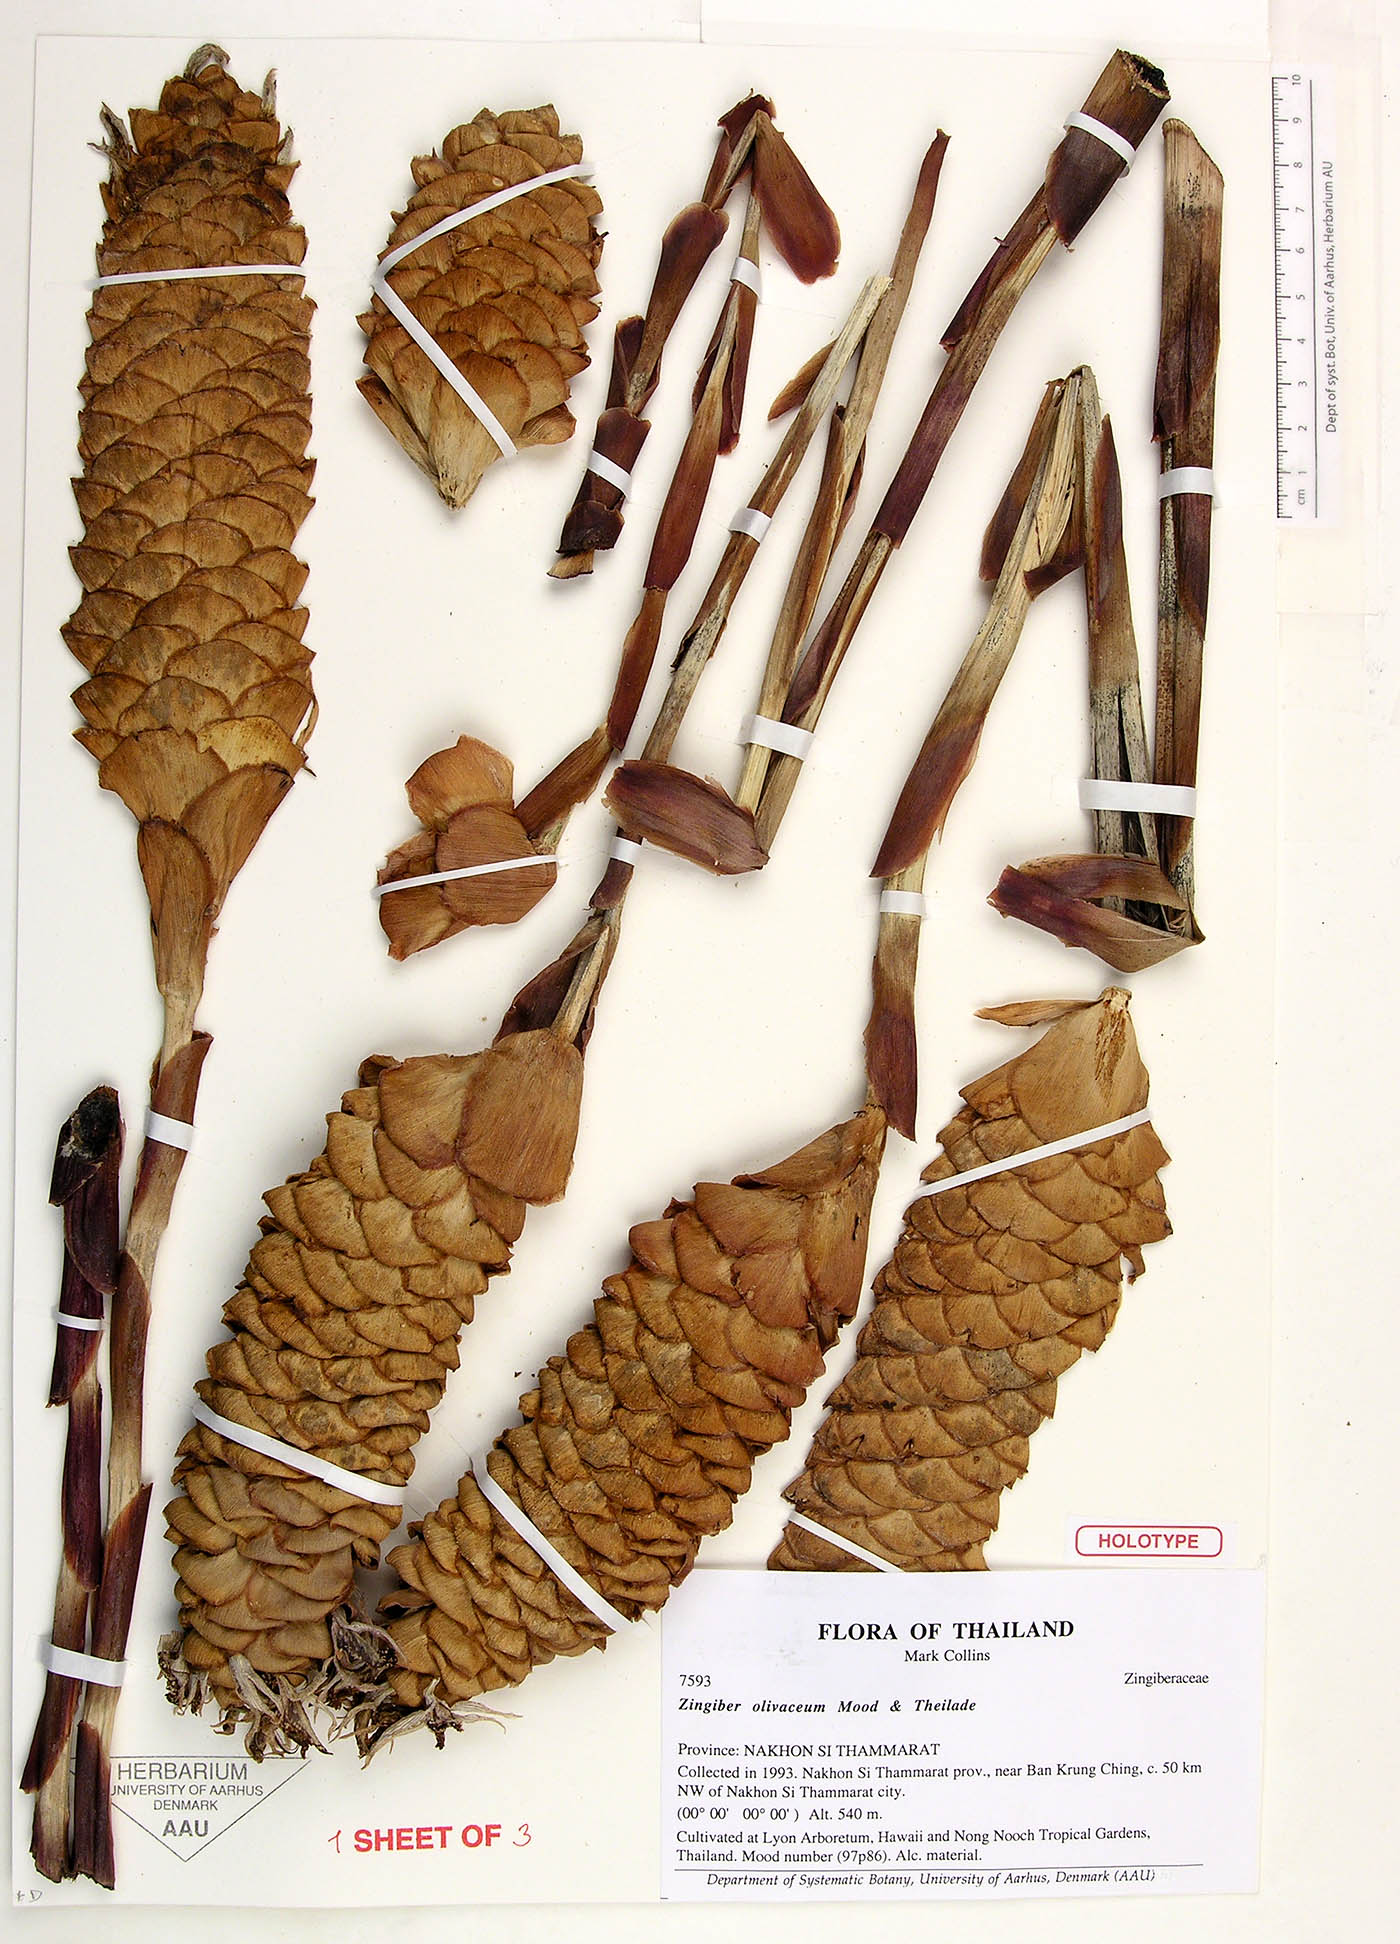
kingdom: Plantae
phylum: Tracheophyta
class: Liliopsida
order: Zingiberales
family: Zingiberaceae
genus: Zingiber
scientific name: Zingiber olivaceum
